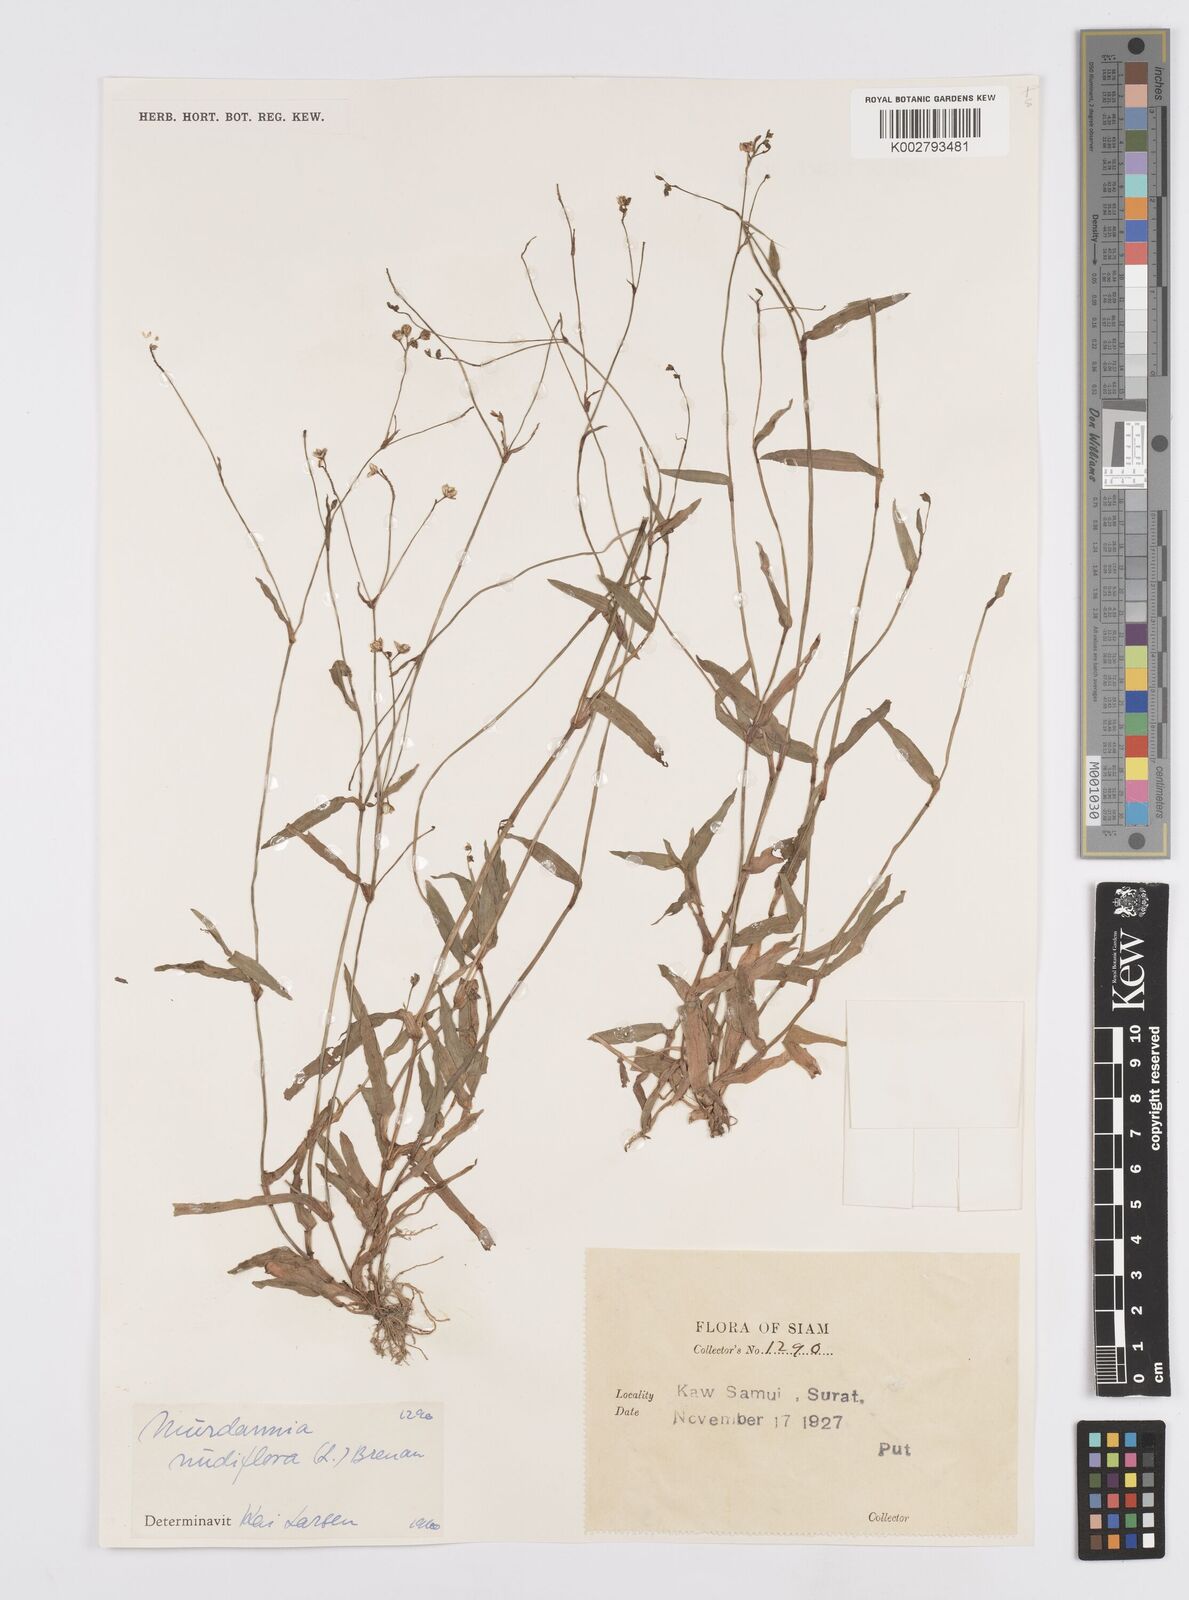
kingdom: Plantae
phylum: Tracheophyta
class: Liliopsida
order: Commelinales
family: Commelinaceae
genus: Murdannia
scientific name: Murdannia nudiflora
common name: Nakedstem dewflower
